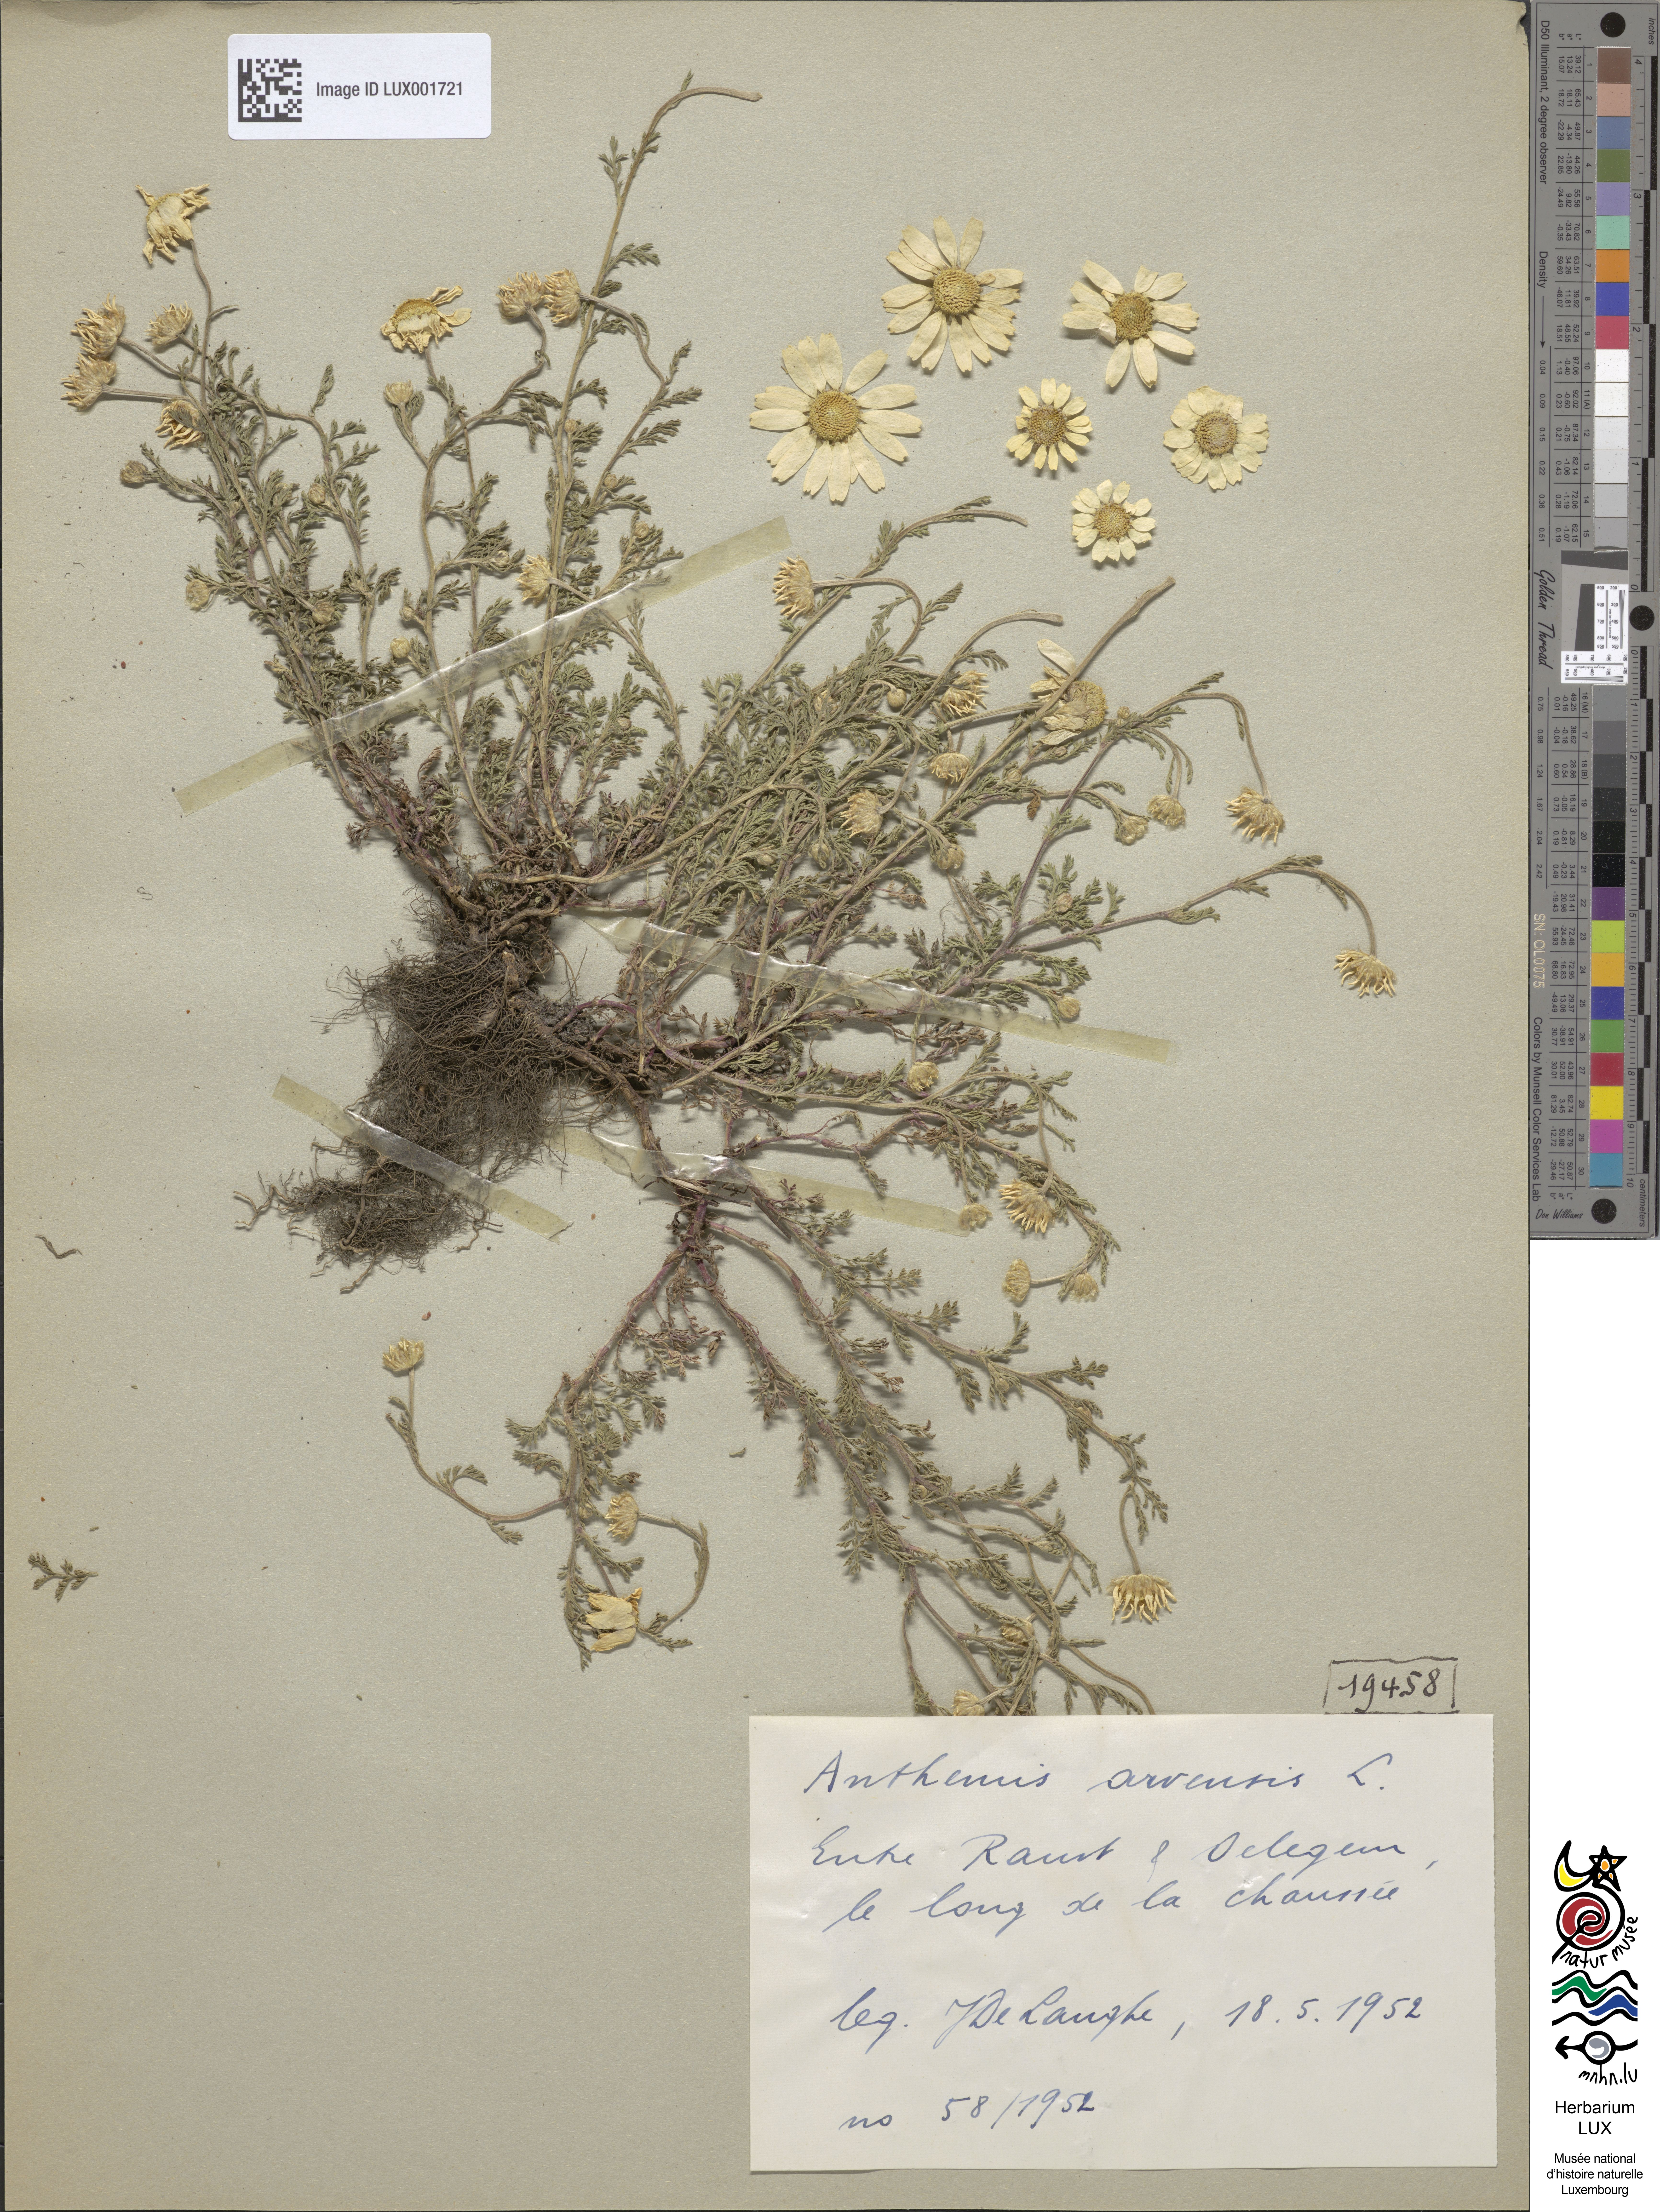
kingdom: Plantae
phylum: Tracheophyta
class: Magnoliopsida
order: Asterales
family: Asteraceae
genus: Anthemis
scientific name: Anthemis arvensis
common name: Corn chamomile
